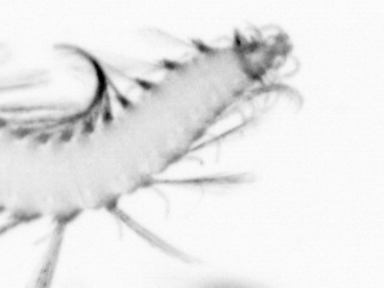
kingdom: Animalia
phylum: Annelida
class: Polychaeta
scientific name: Polychaeta
